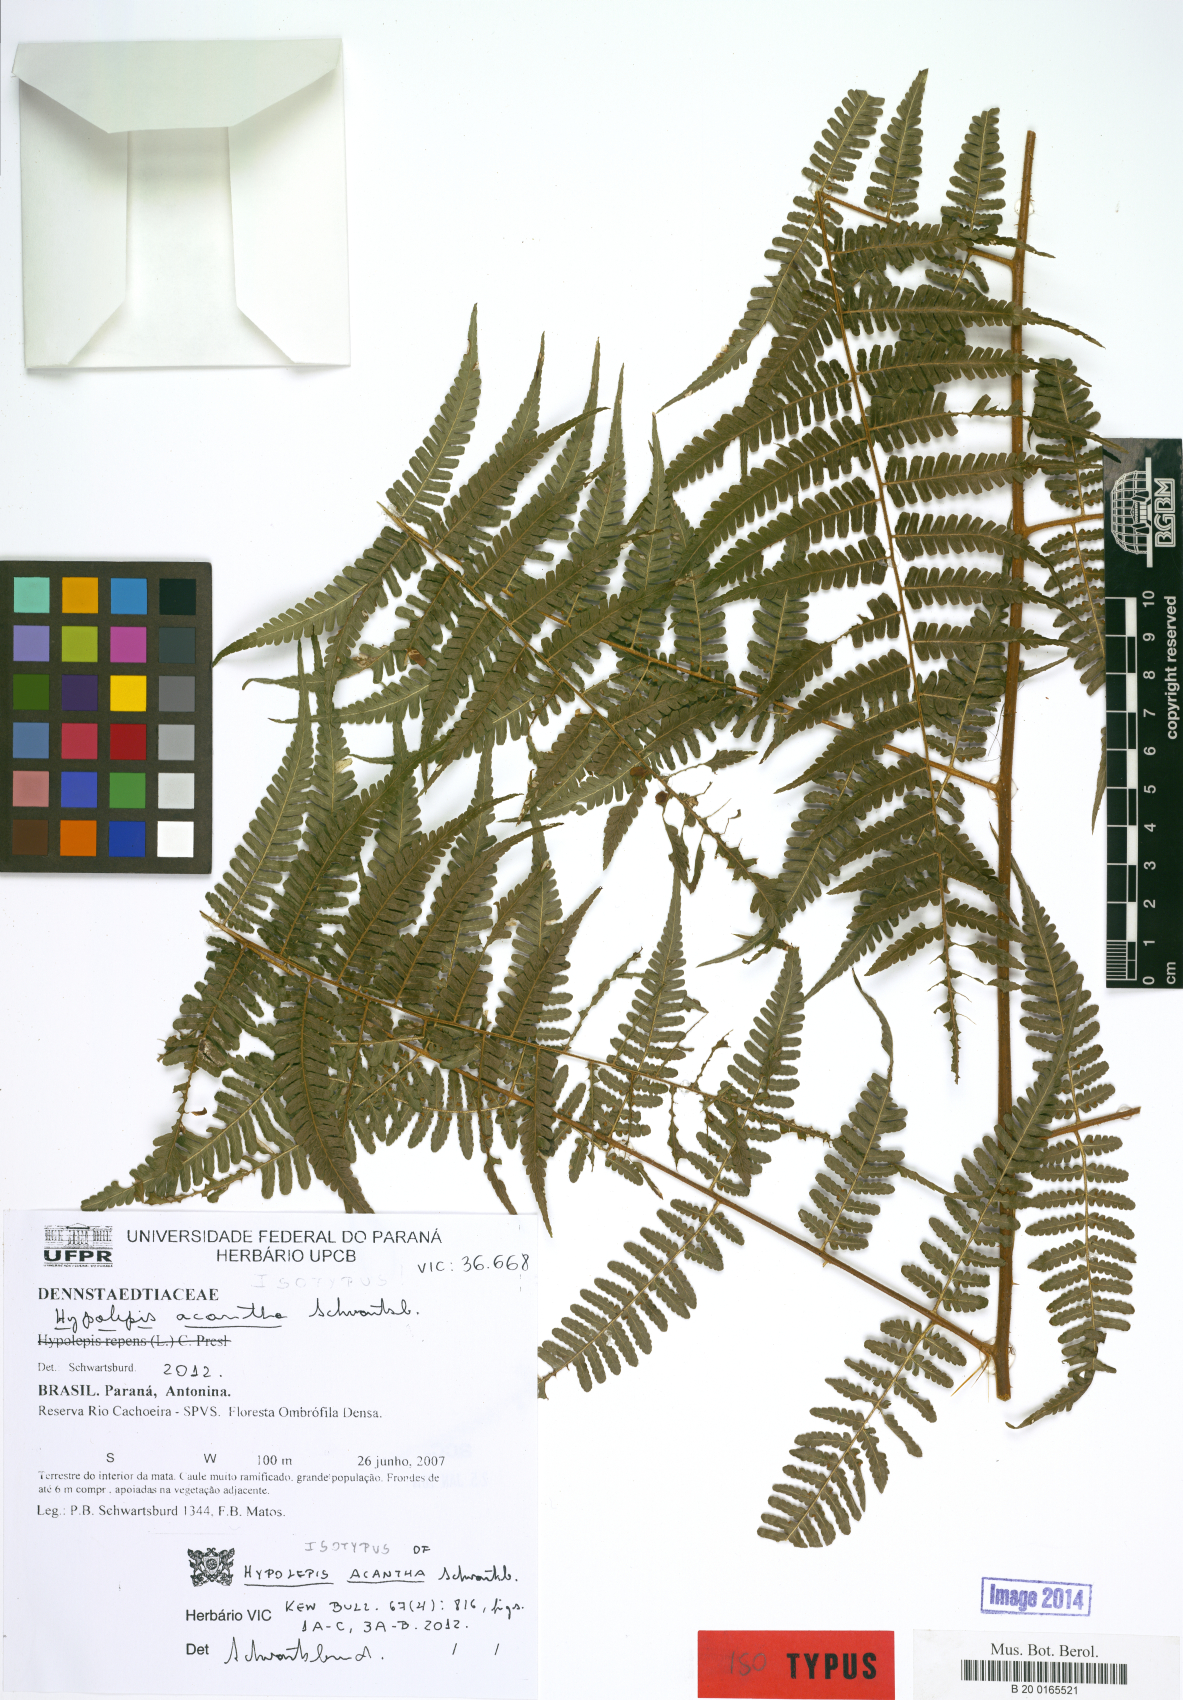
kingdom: Plantae
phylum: Tracheophyta
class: Polypodiopsida
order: Polypodiales
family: Dennstaedtiaceae
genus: Hypolepis
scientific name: Hypolepis acantha
